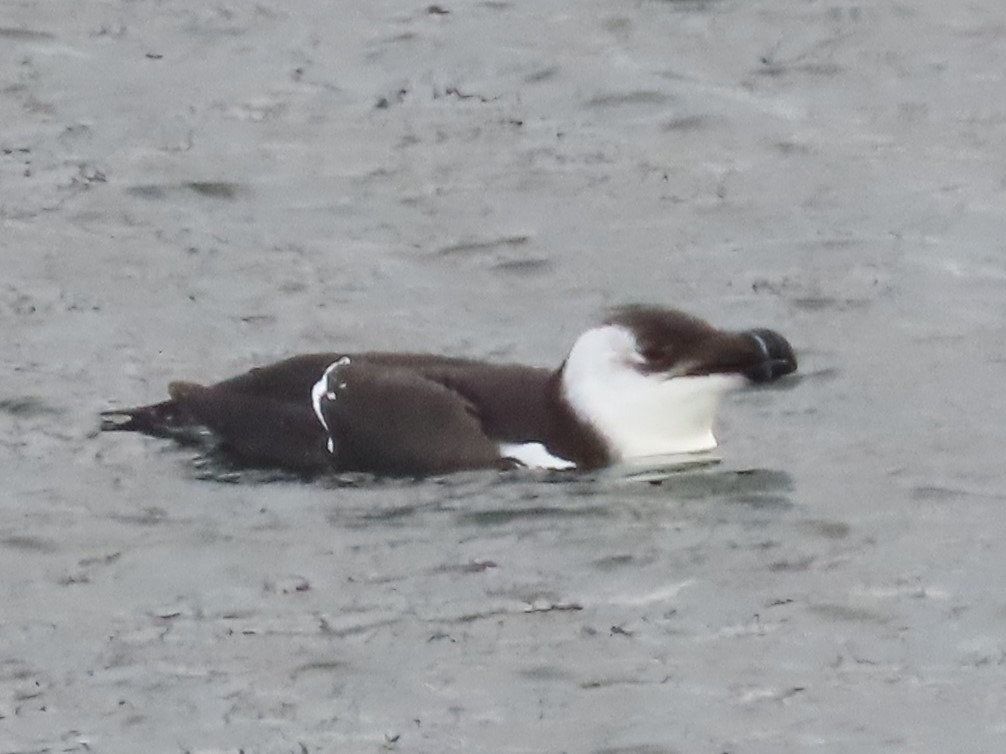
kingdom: Animalia
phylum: Chordata
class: Aves
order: Charadriiformes
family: Alcidae
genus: Alca
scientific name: Alca torda
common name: Alk
